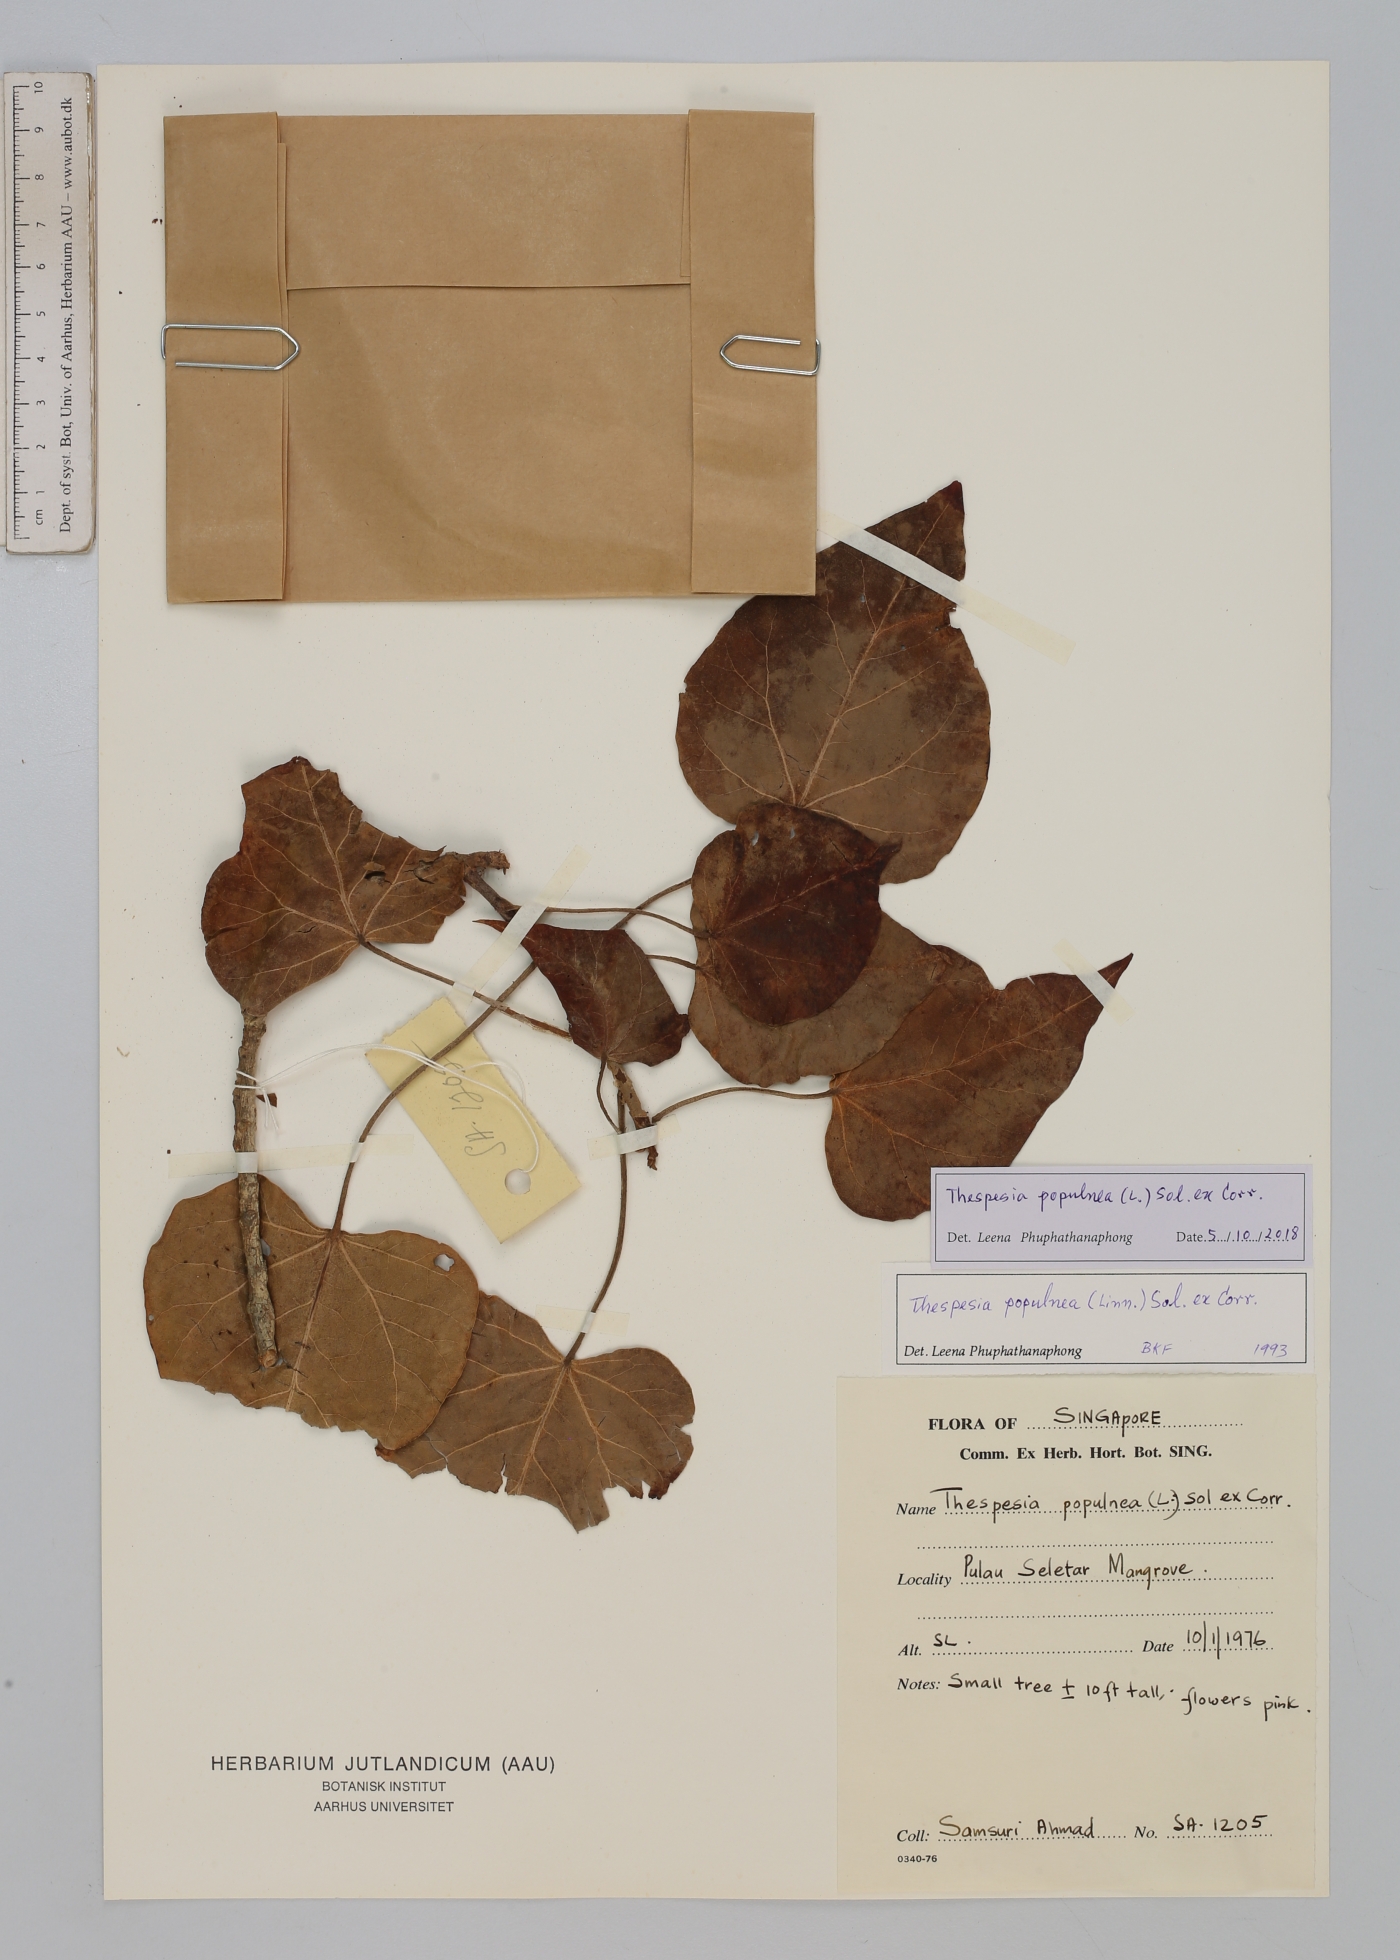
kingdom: Plantae
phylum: Tracheophyta
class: Magnoliopsida
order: Malvales
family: Malvaceae
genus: Thespesia
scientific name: Thespesia populnea
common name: Seaside mahoe
